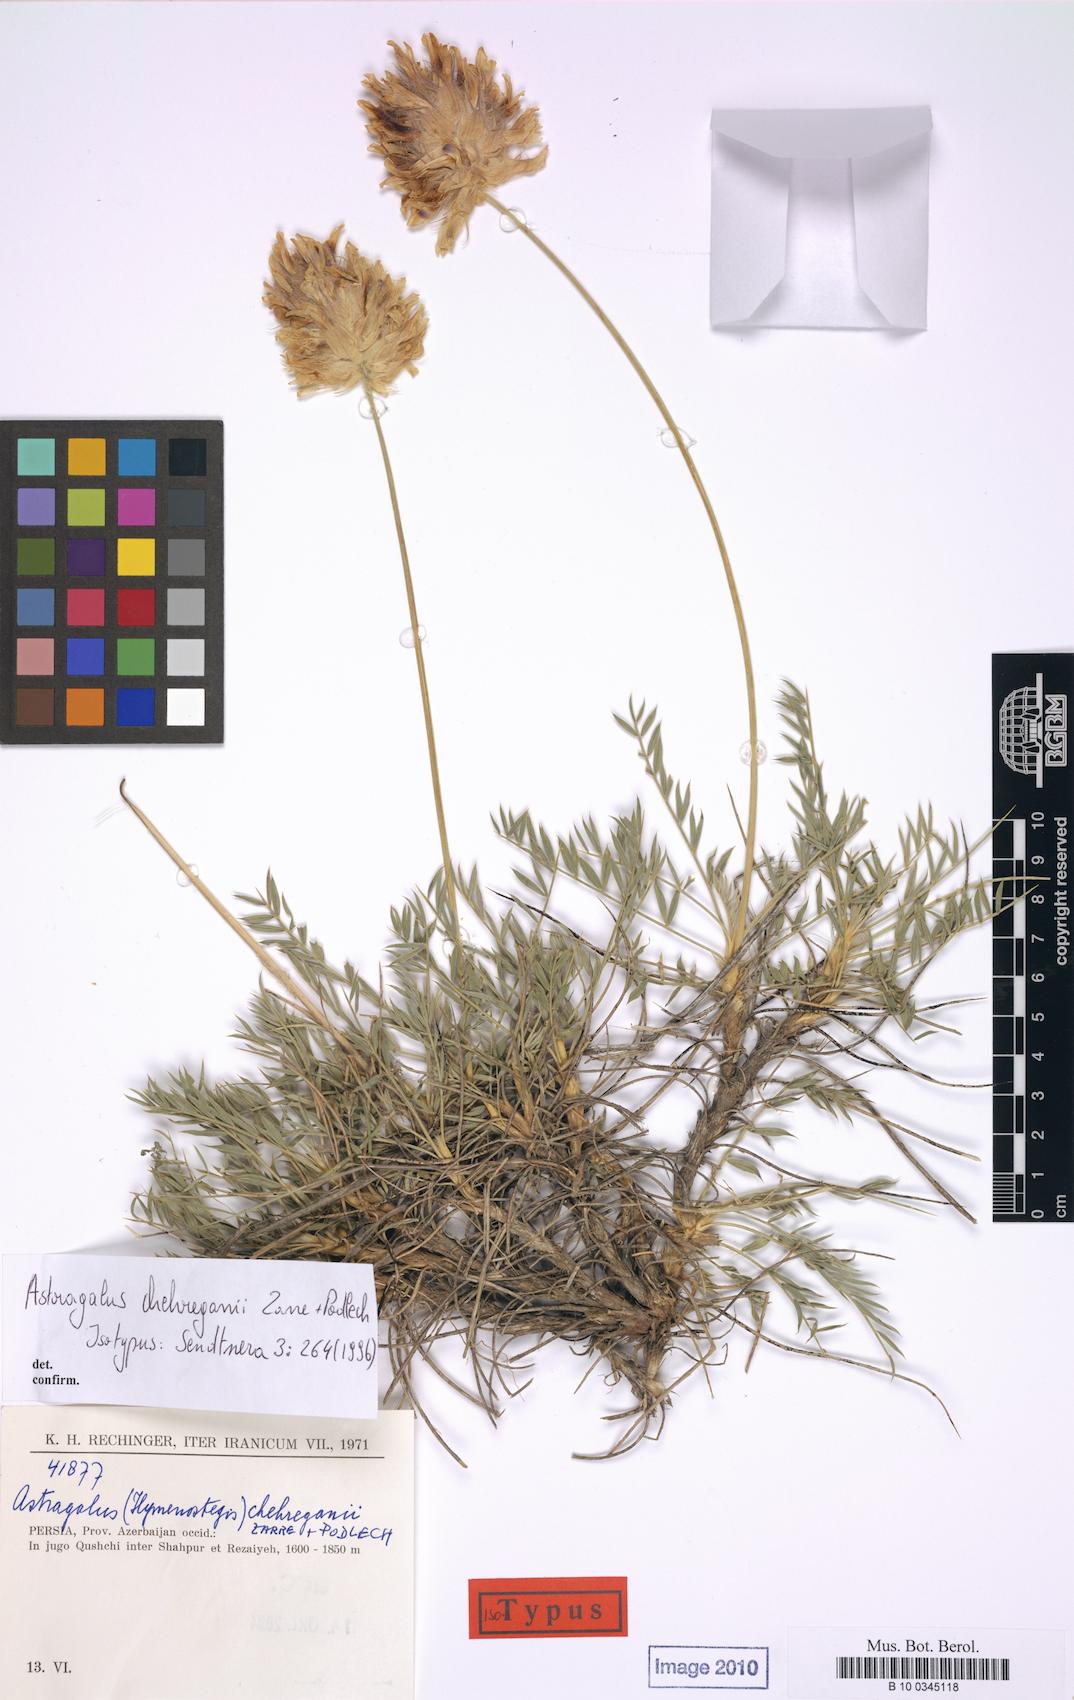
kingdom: Plantae
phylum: Tracheophyta
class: Magnoliopsida
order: Fabales
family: Fabaceae
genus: Astragalus
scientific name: Astragalus chehreganii
